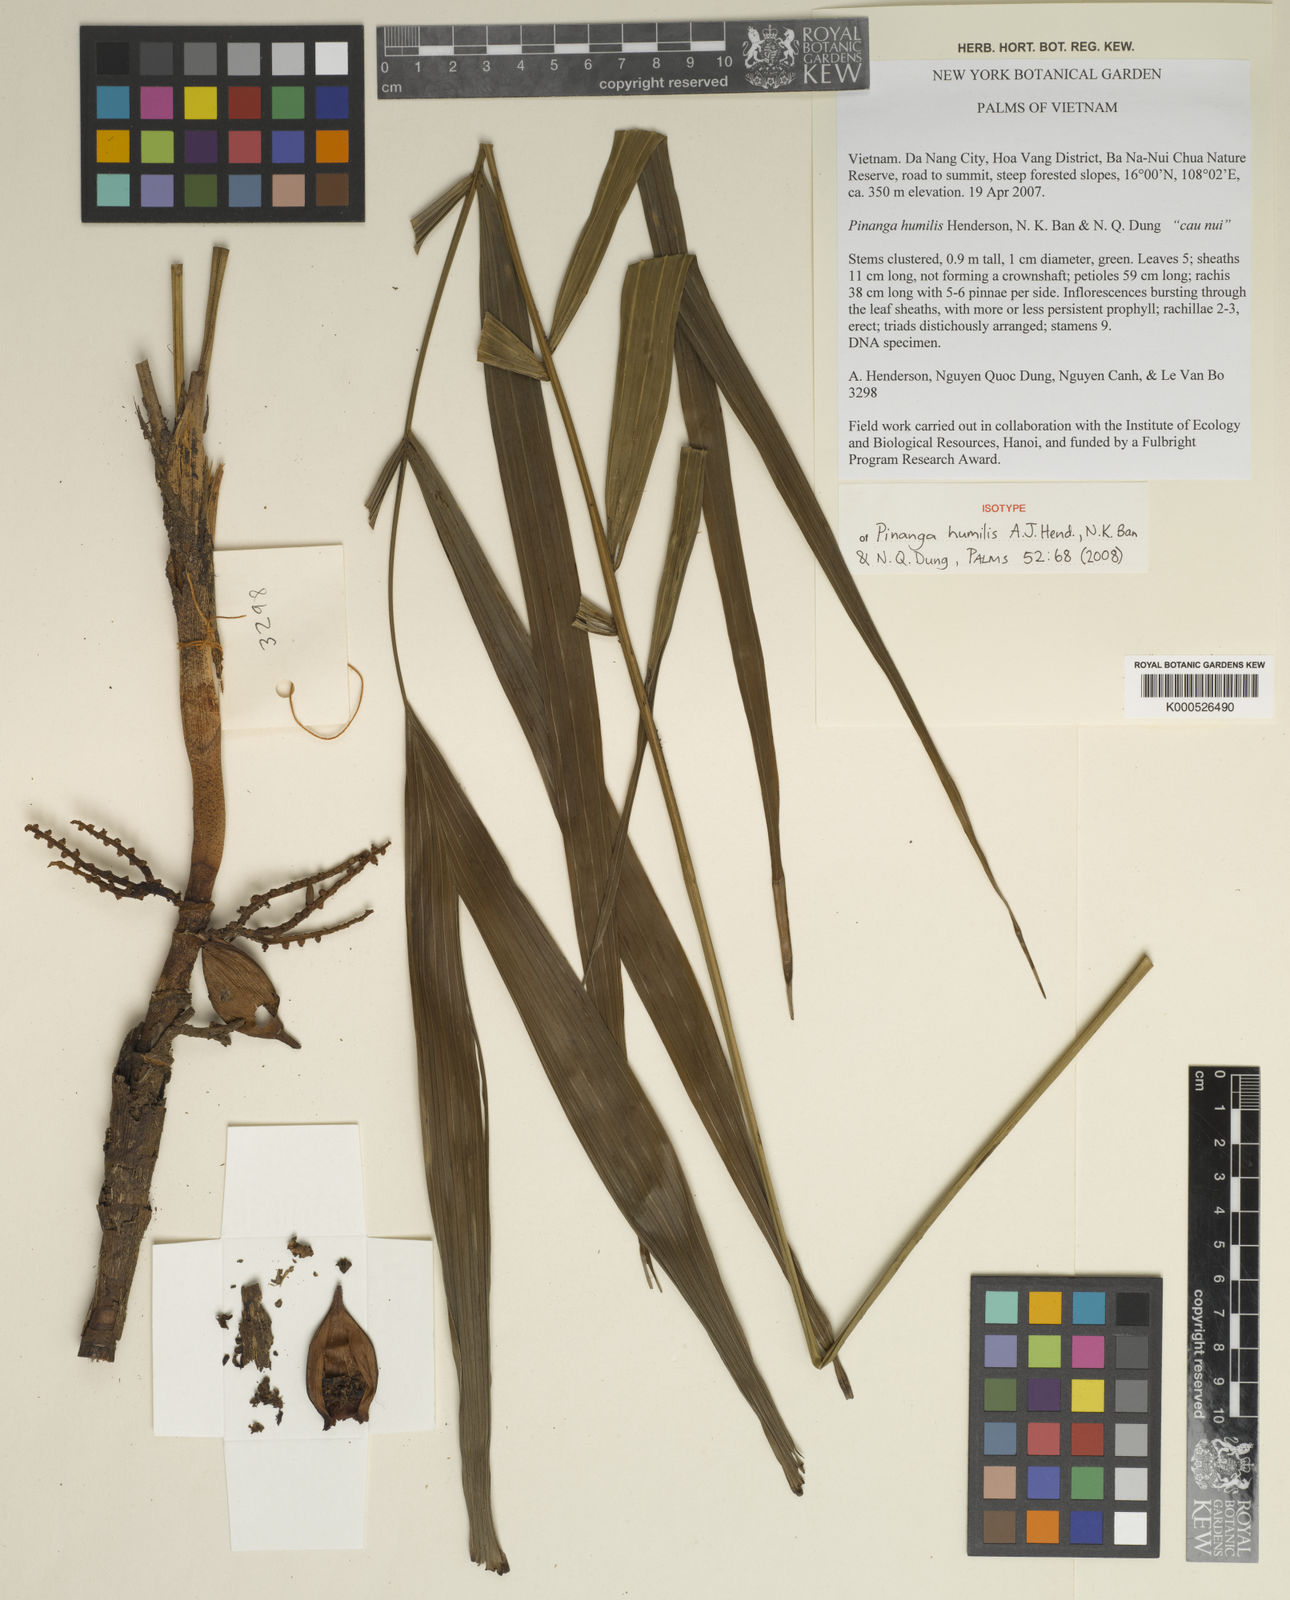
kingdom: Plantae
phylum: Tracheophyta
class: Liliopsida
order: Arecales
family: Arecaceae
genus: Pinanga
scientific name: Pinanga
